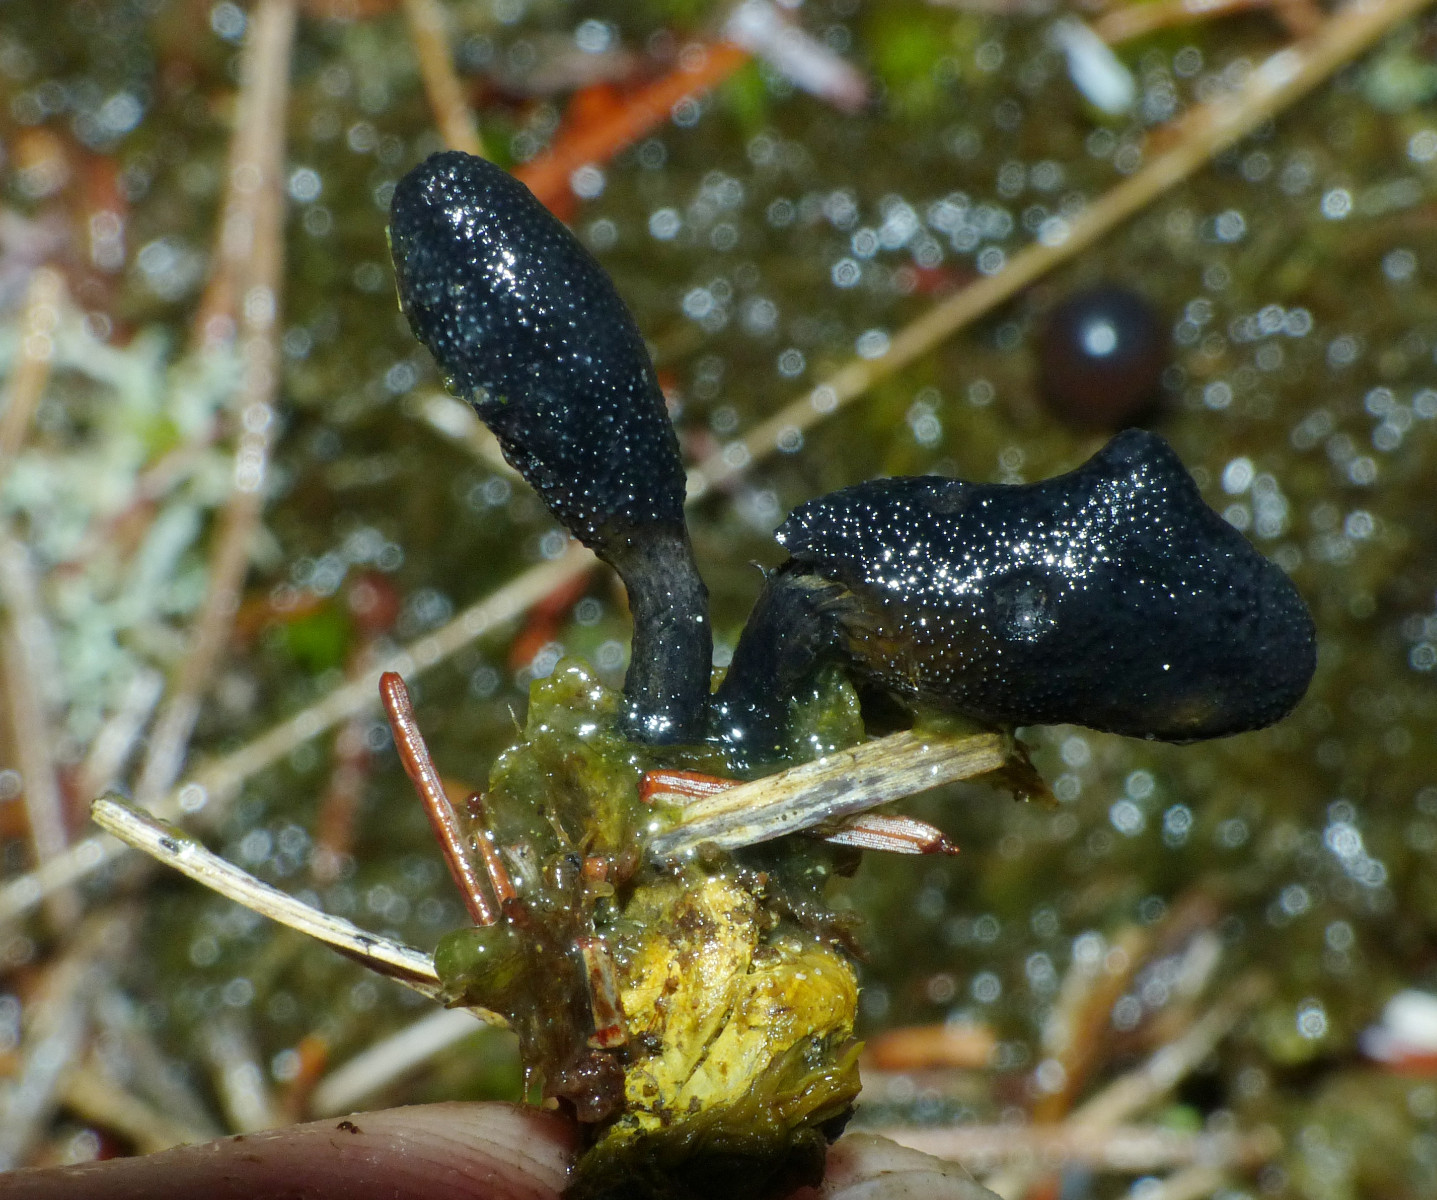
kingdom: Fungi
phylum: Ascomycota
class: Sordariomycetes
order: Hypocreales
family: Ophiocordycipitaceae
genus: Tolypocladium
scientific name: Tolypocladium ophioglossoides
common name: slank snyltekølle
